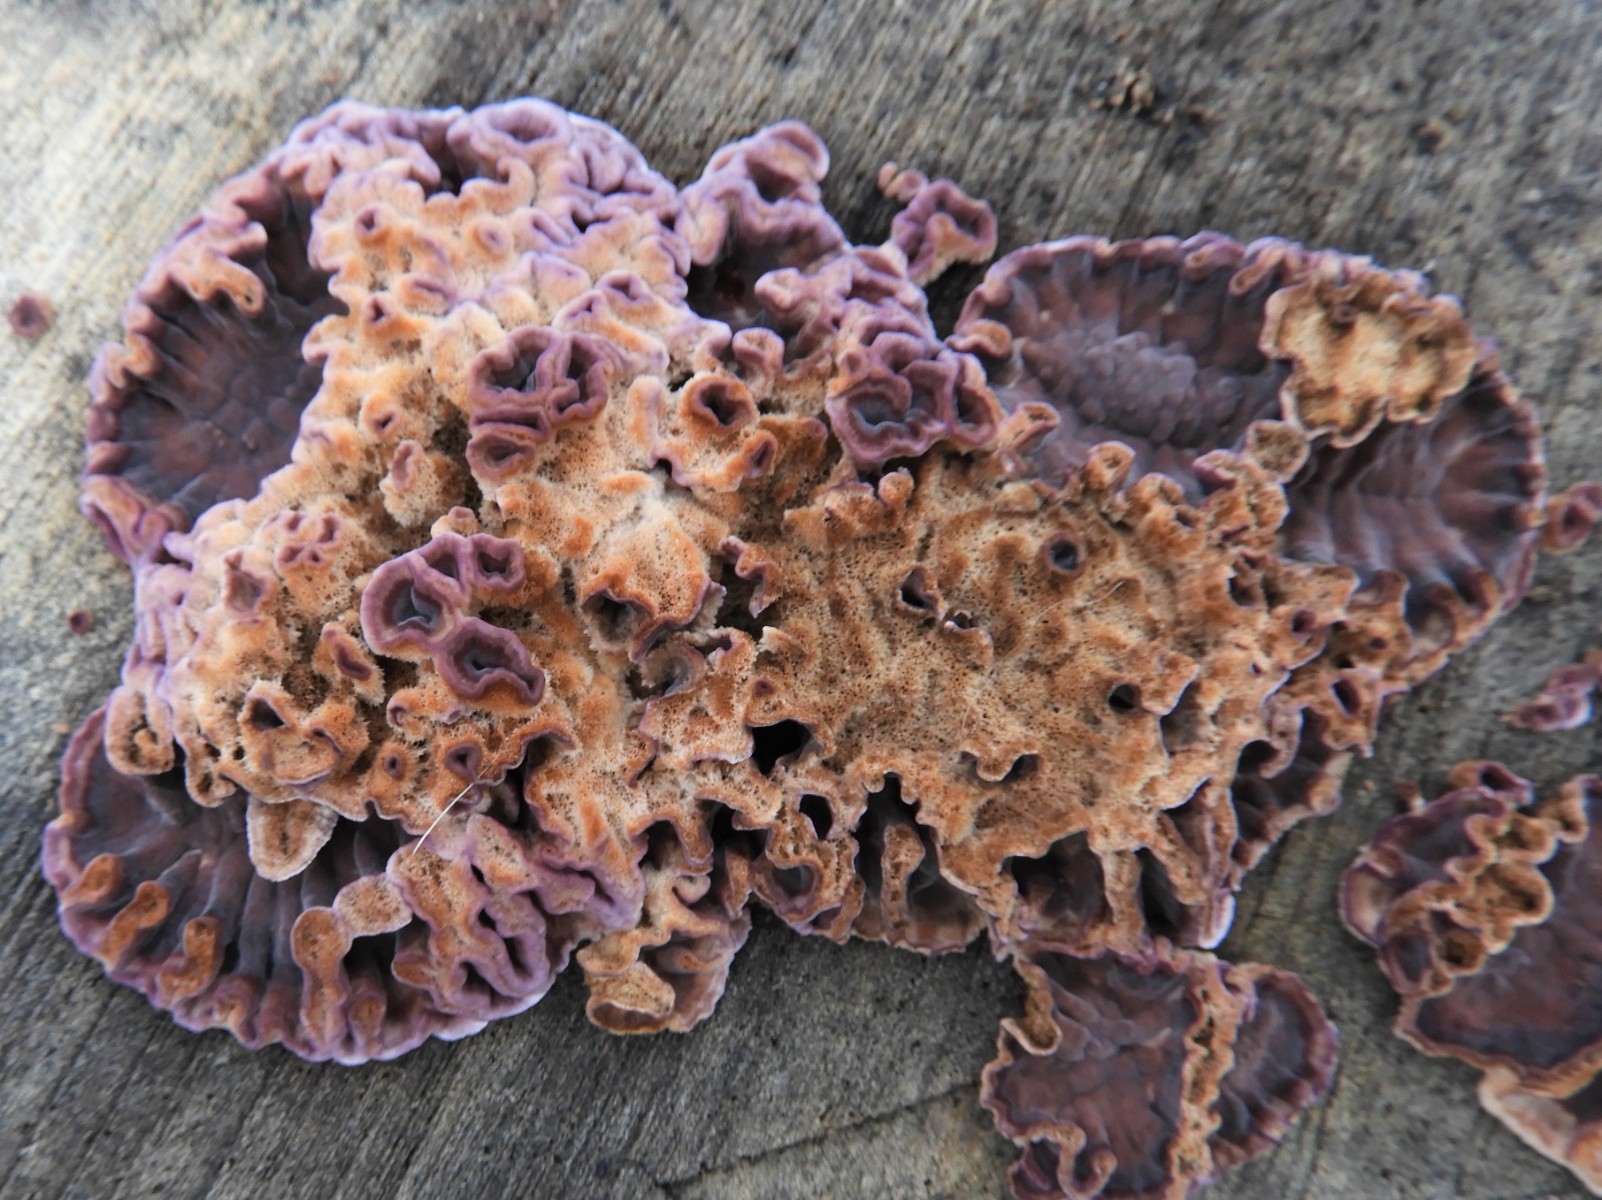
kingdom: Fungi
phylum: Basidiomycota
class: Agaricomycetes
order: Agaricales
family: Cyphellaceae
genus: Chondrostereum
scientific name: Chondrostereum purpureum
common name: purpurlædersvamp
